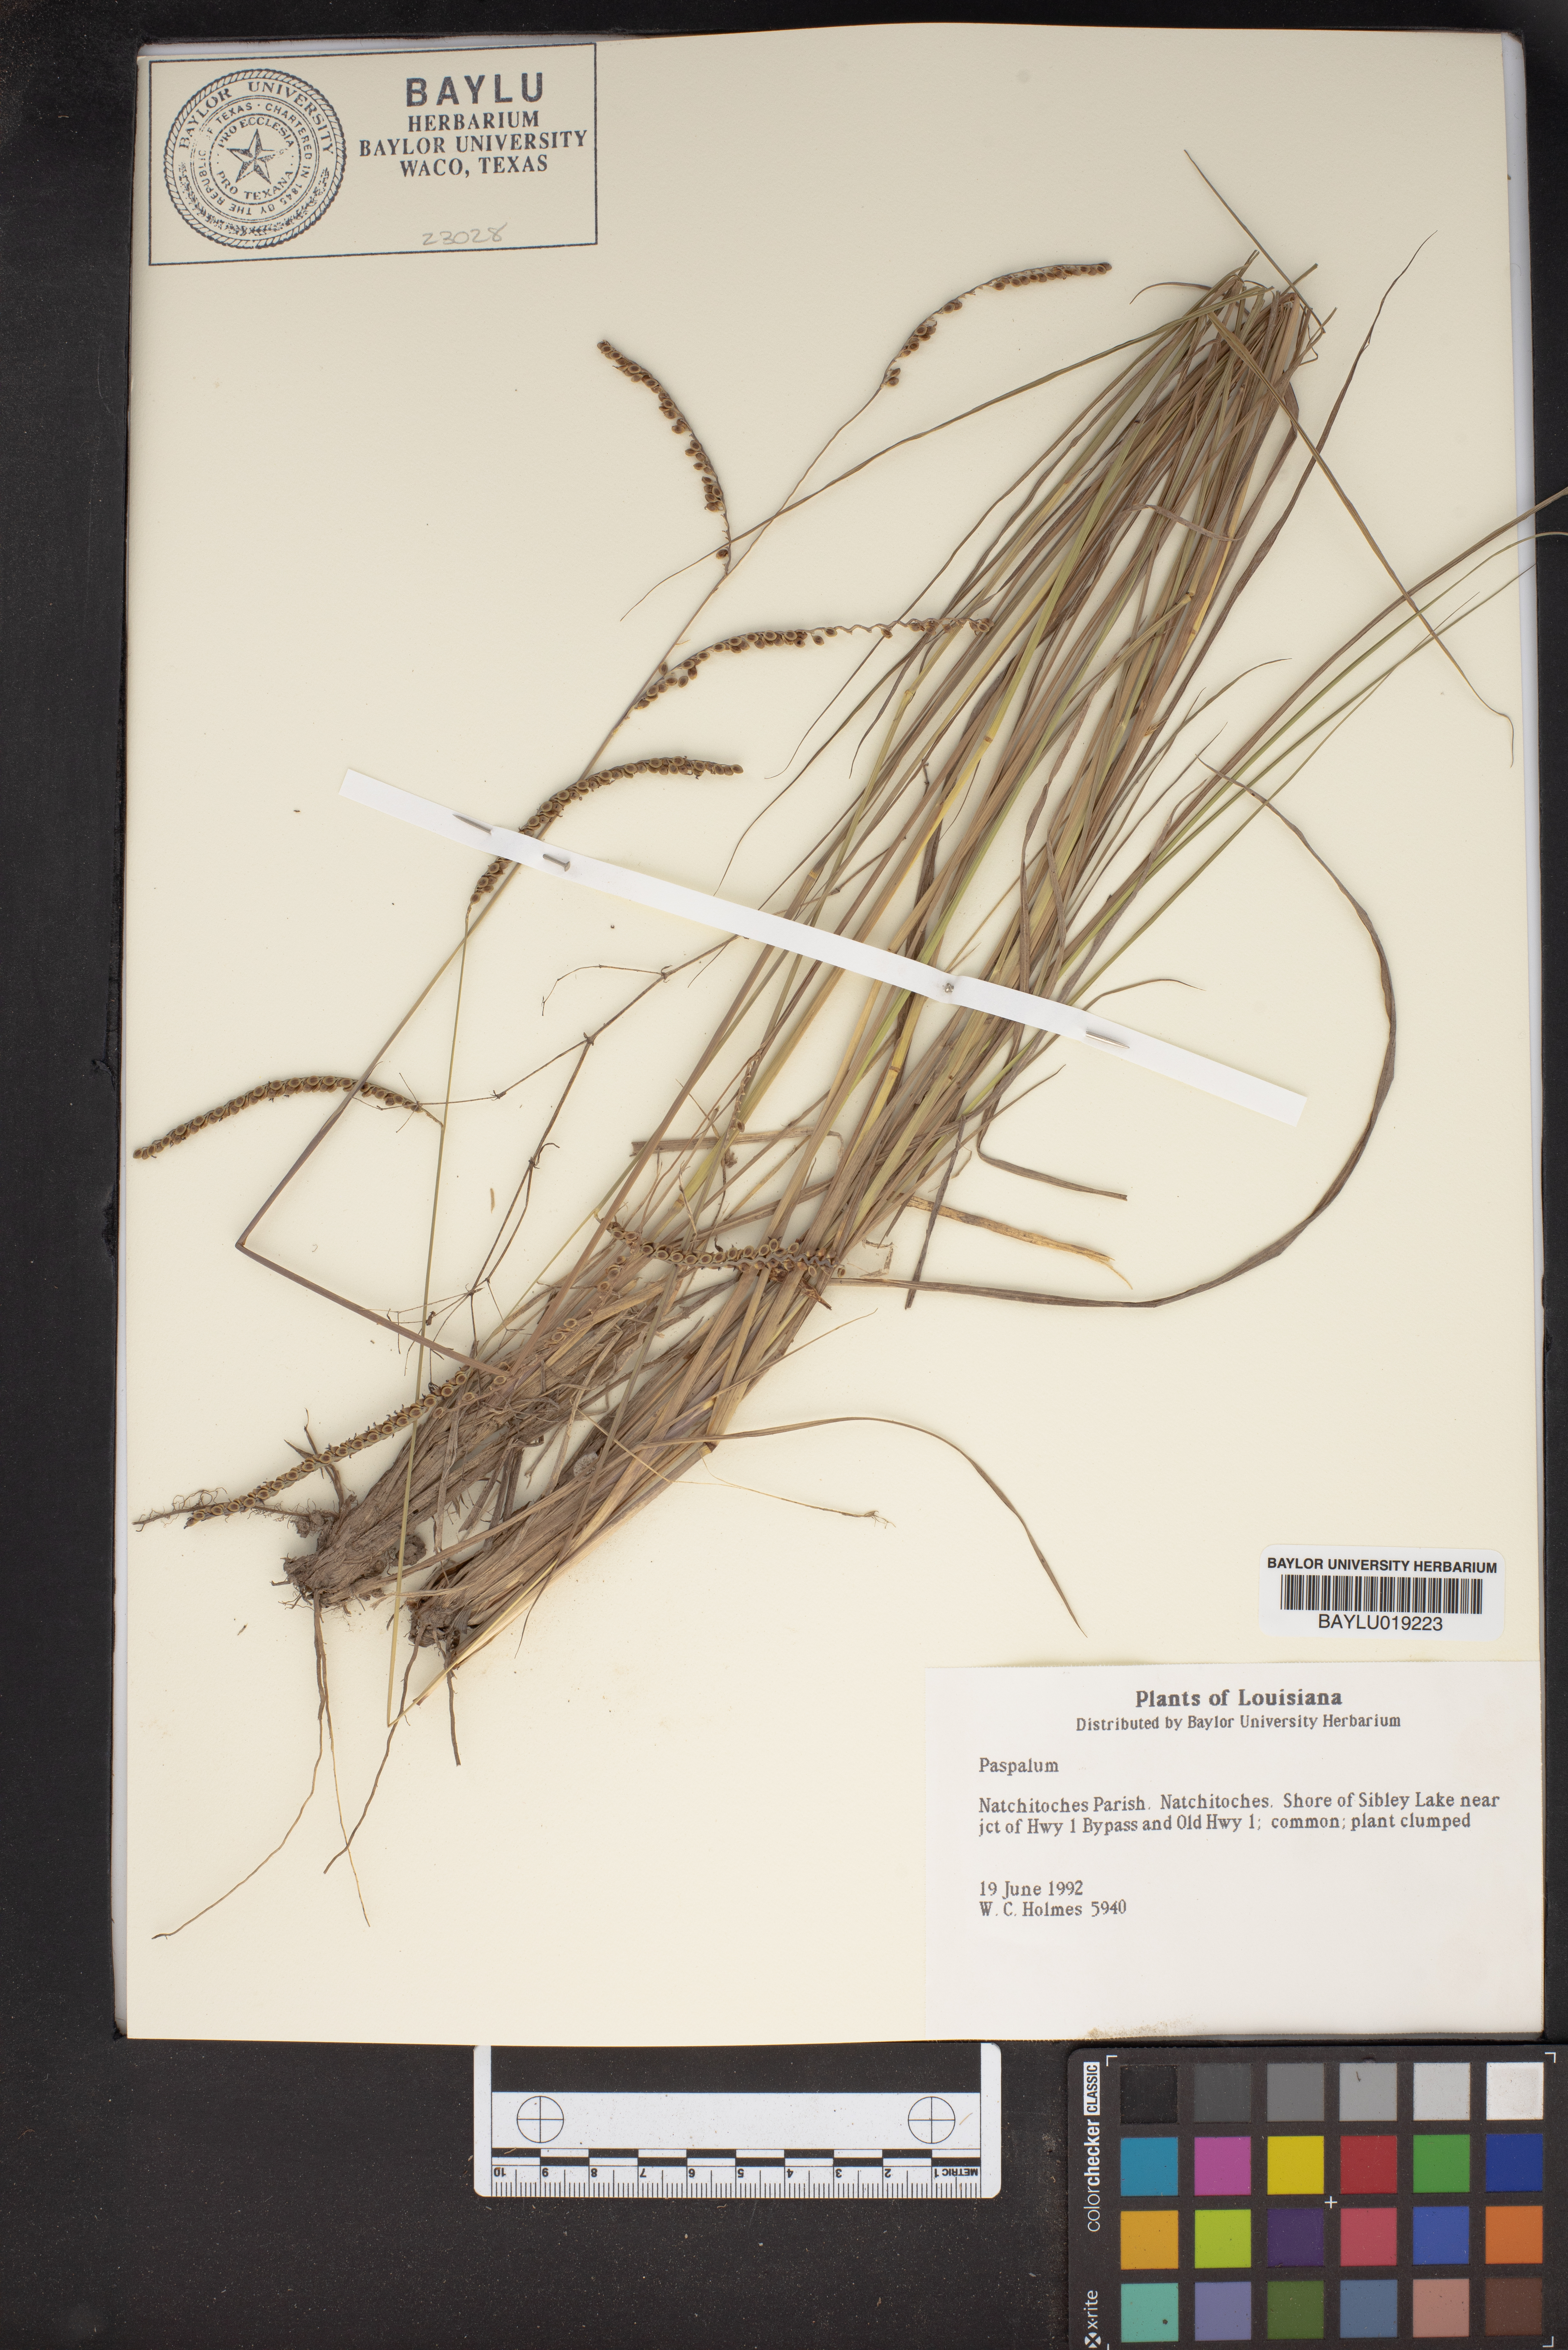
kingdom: Plantae
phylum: Tracheophyta
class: Liliopsida
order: Poales
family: Poaceae
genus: Paspalum
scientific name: Paspalum
